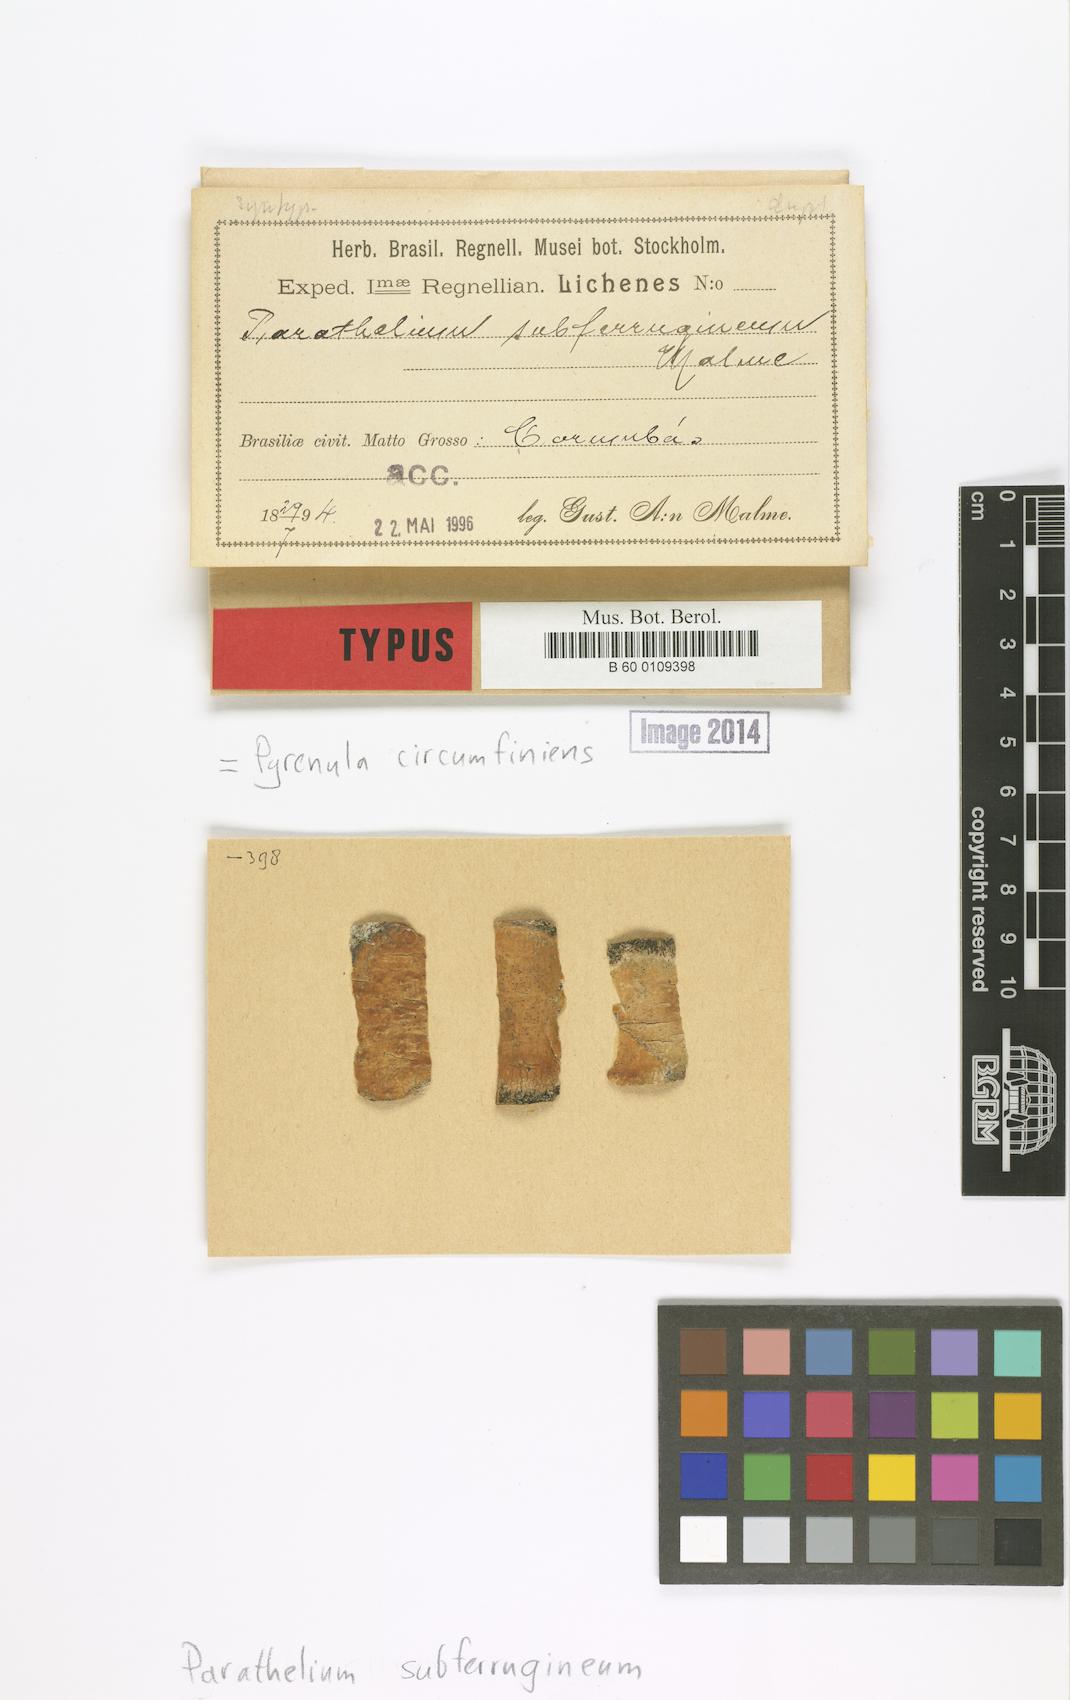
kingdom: Fungi
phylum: Ascomycota
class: Eurotiomycetes
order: Pyrenulales
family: Pyrenulaceae
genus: Pyrenula
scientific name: Pyrenula subferruginea
